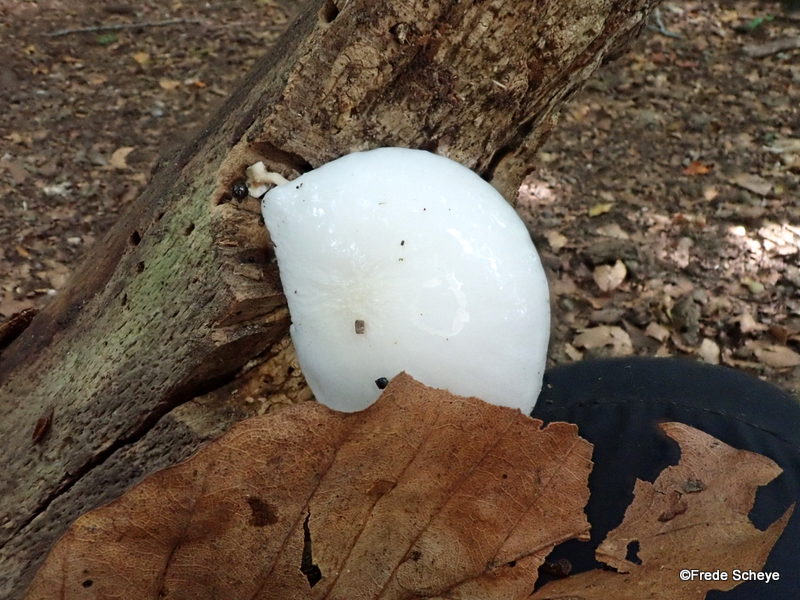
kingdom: Fungi
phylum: Basidiomycota
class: Agaricomycetes
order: Agaricales
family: Physalacriaceae
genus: Mucidula
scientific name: Mucidula mucida
